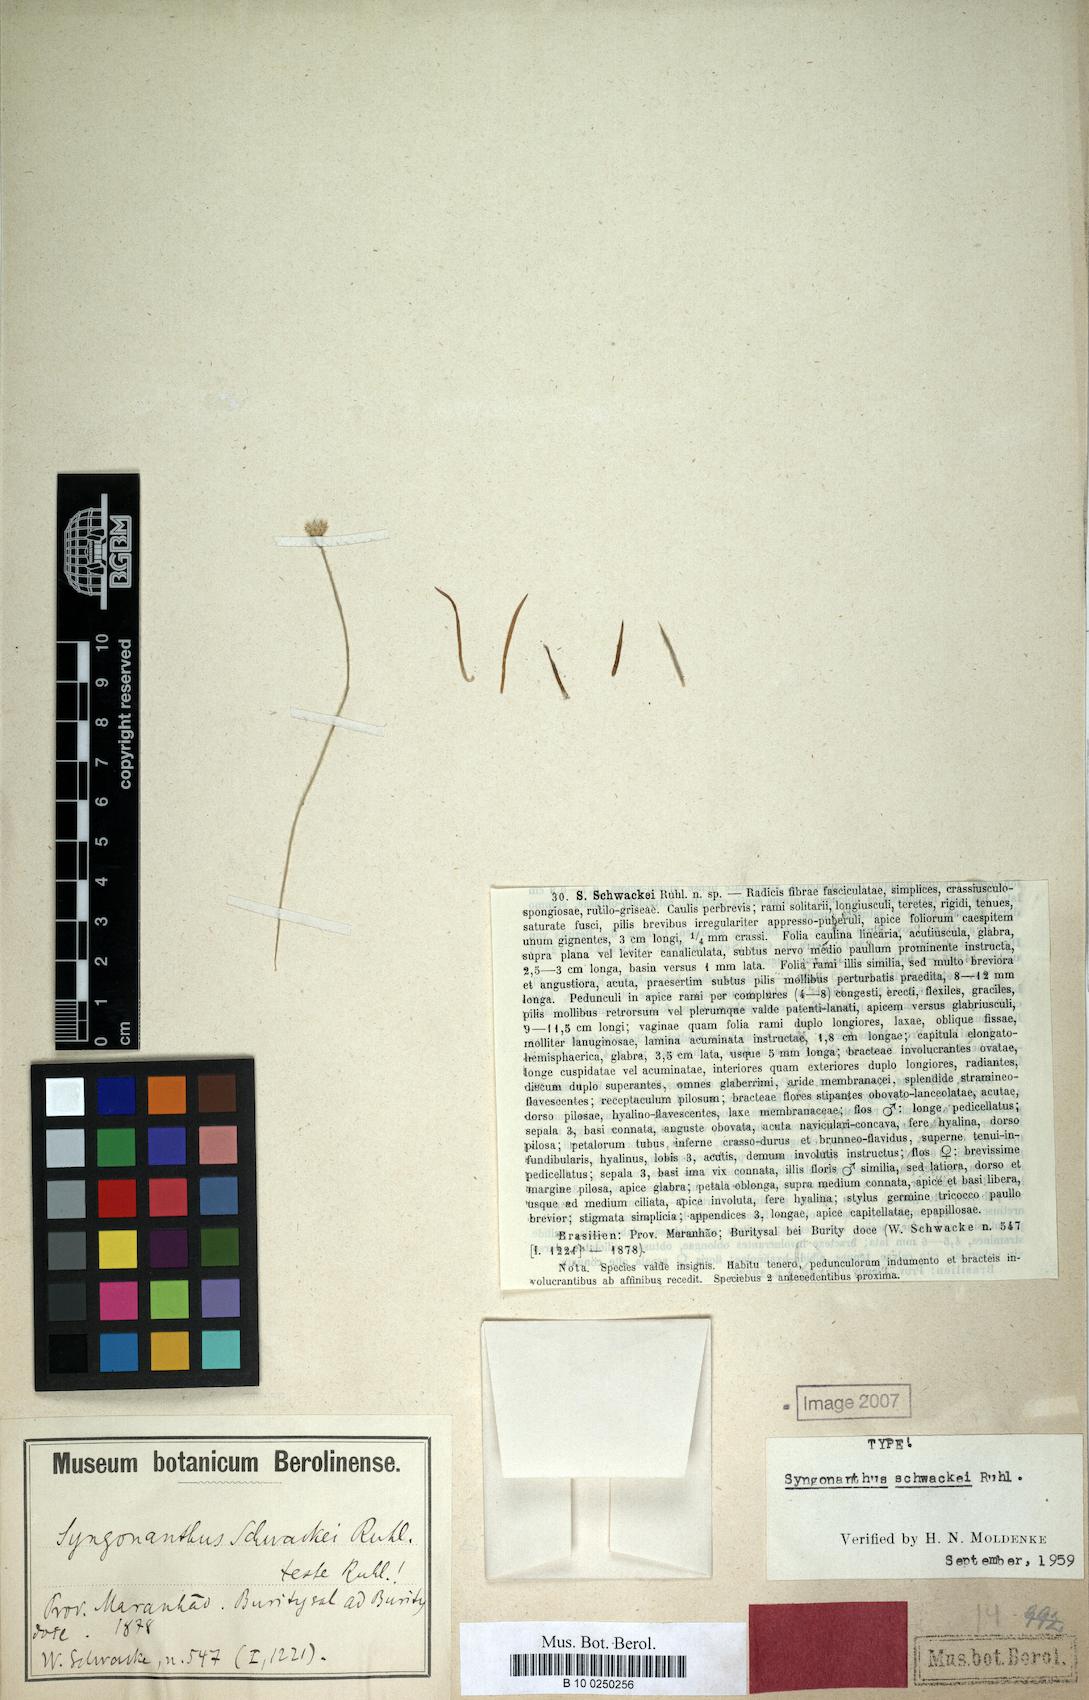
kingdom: Plantae
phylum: Tracheophyta
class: Liliopsida
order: Poales
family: Eriocaulaceae
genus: Syngonanthus
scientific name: Syngonanthus schwackei
